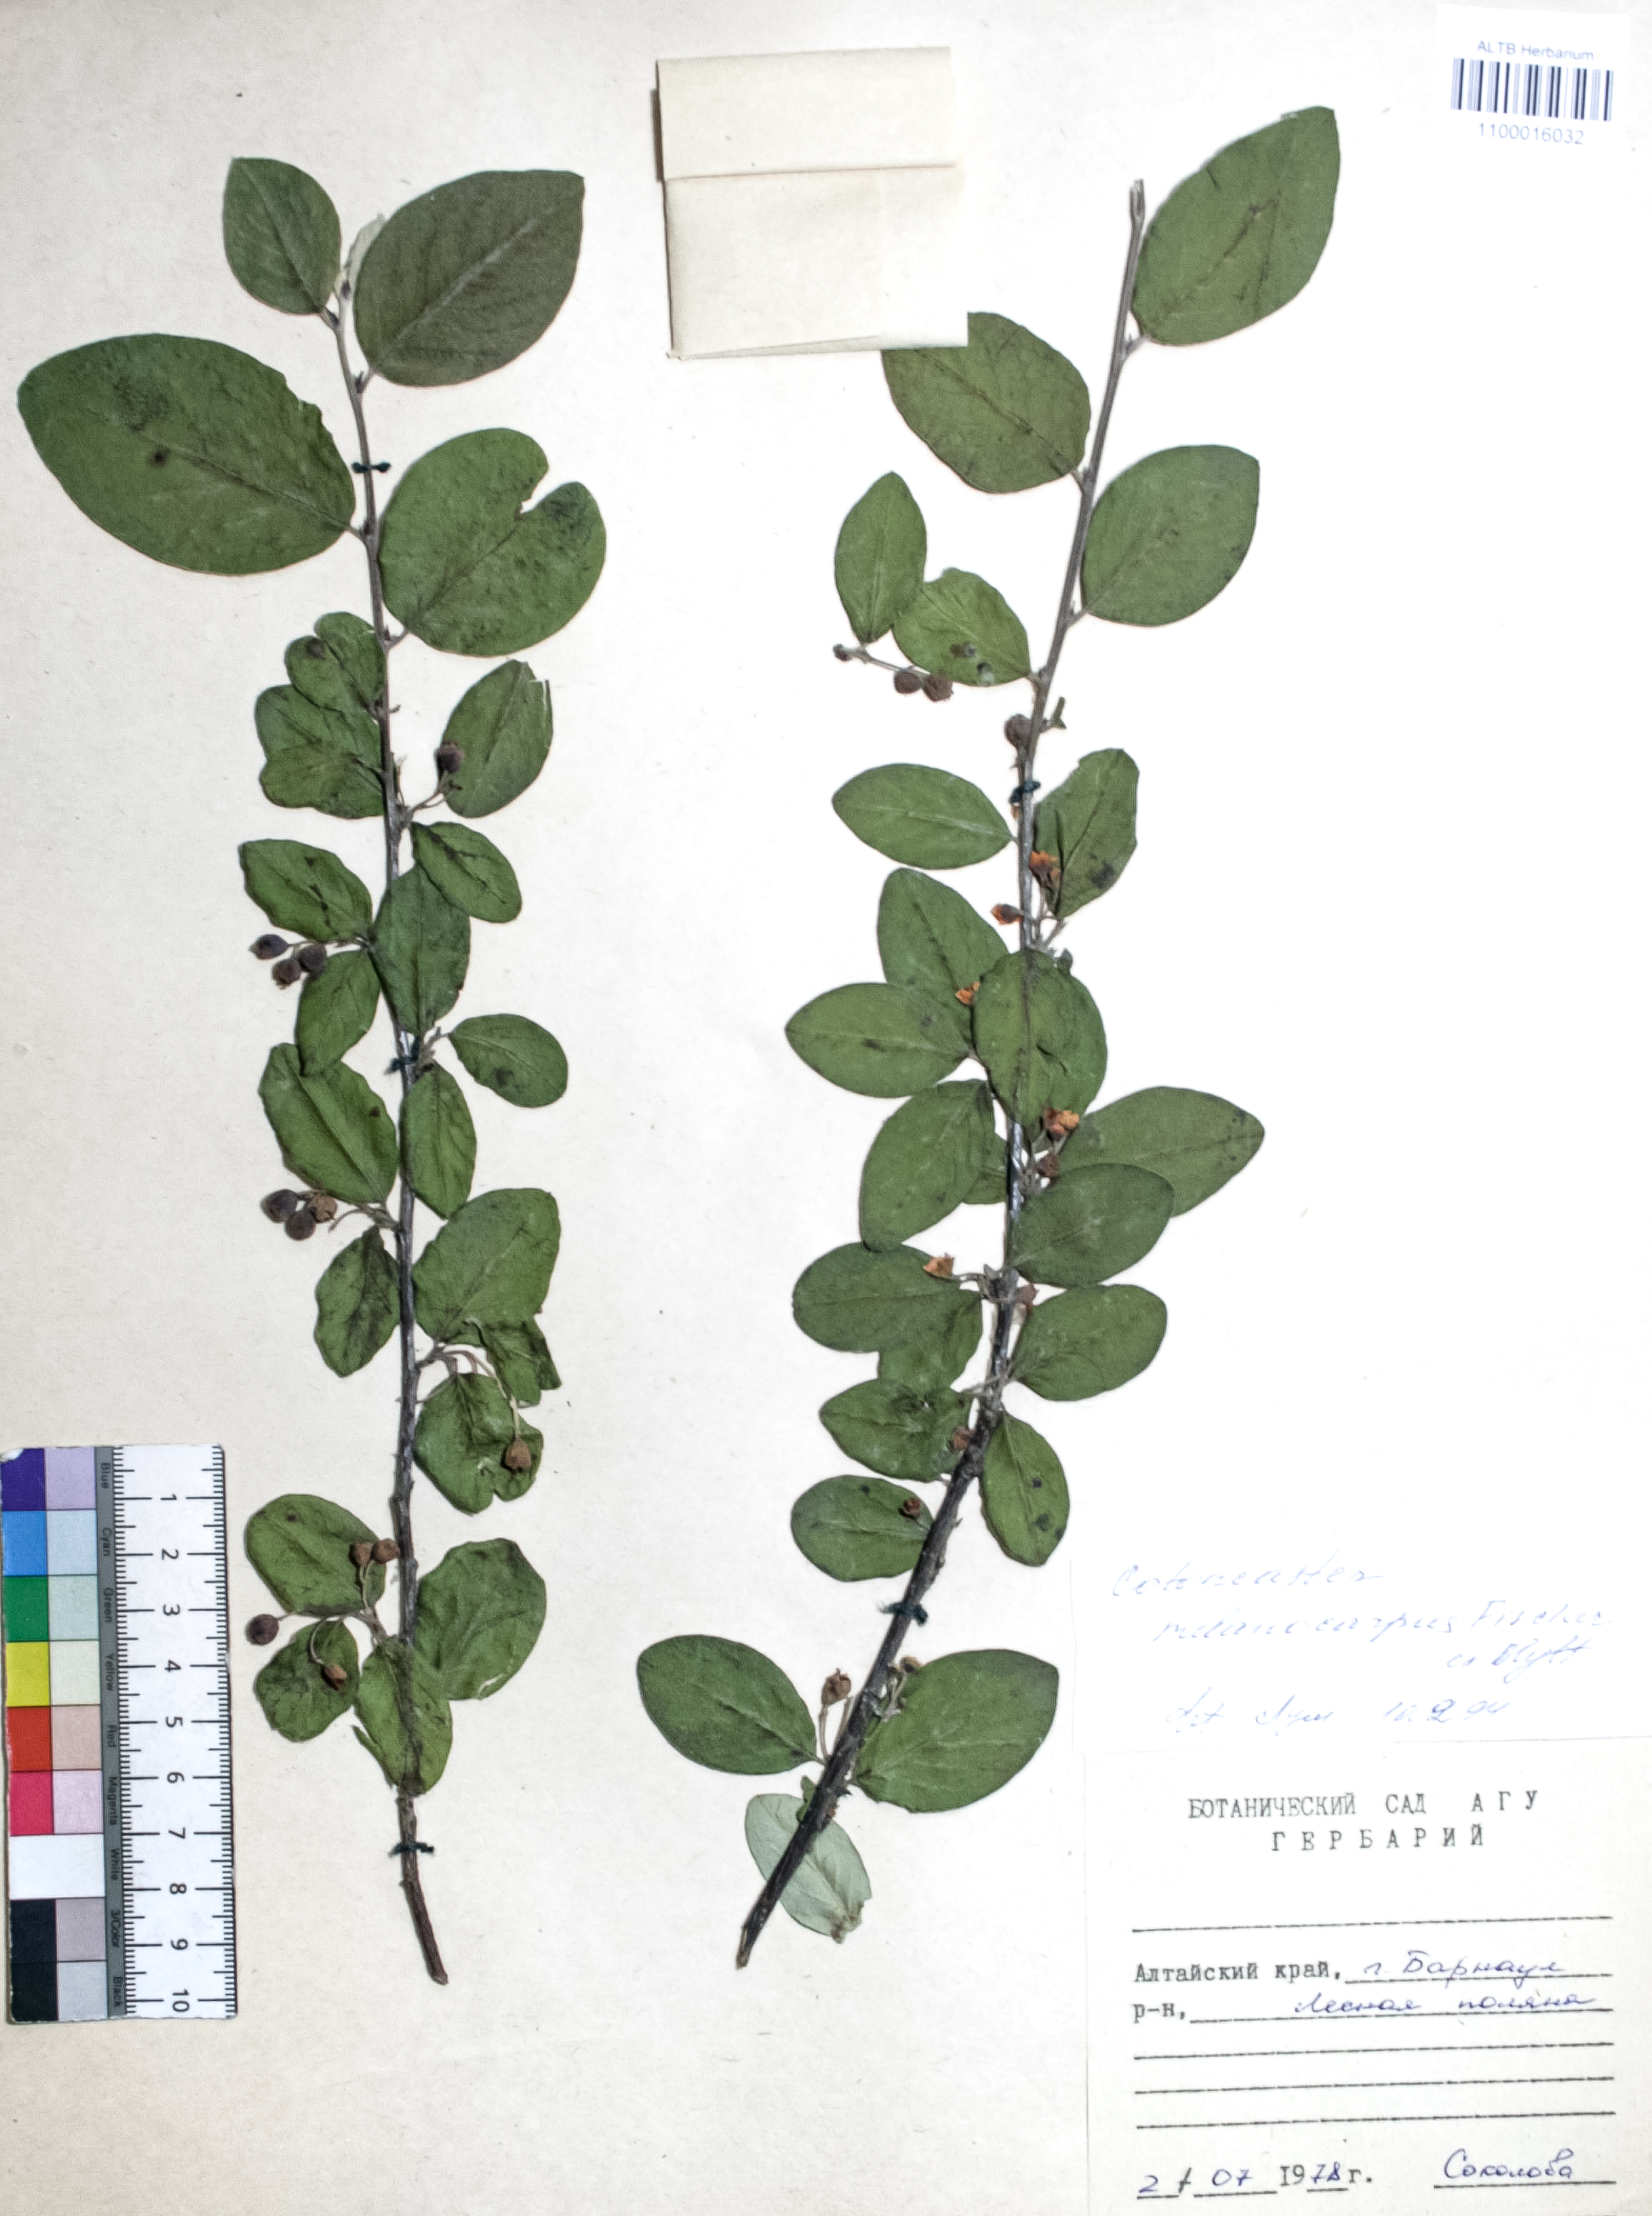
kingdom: Plantae
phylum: Tracheophyta
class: Magnoliopsida
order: Rosales
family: Rosaceae
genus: Cotoneaster
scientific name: Cotoneaster niger
